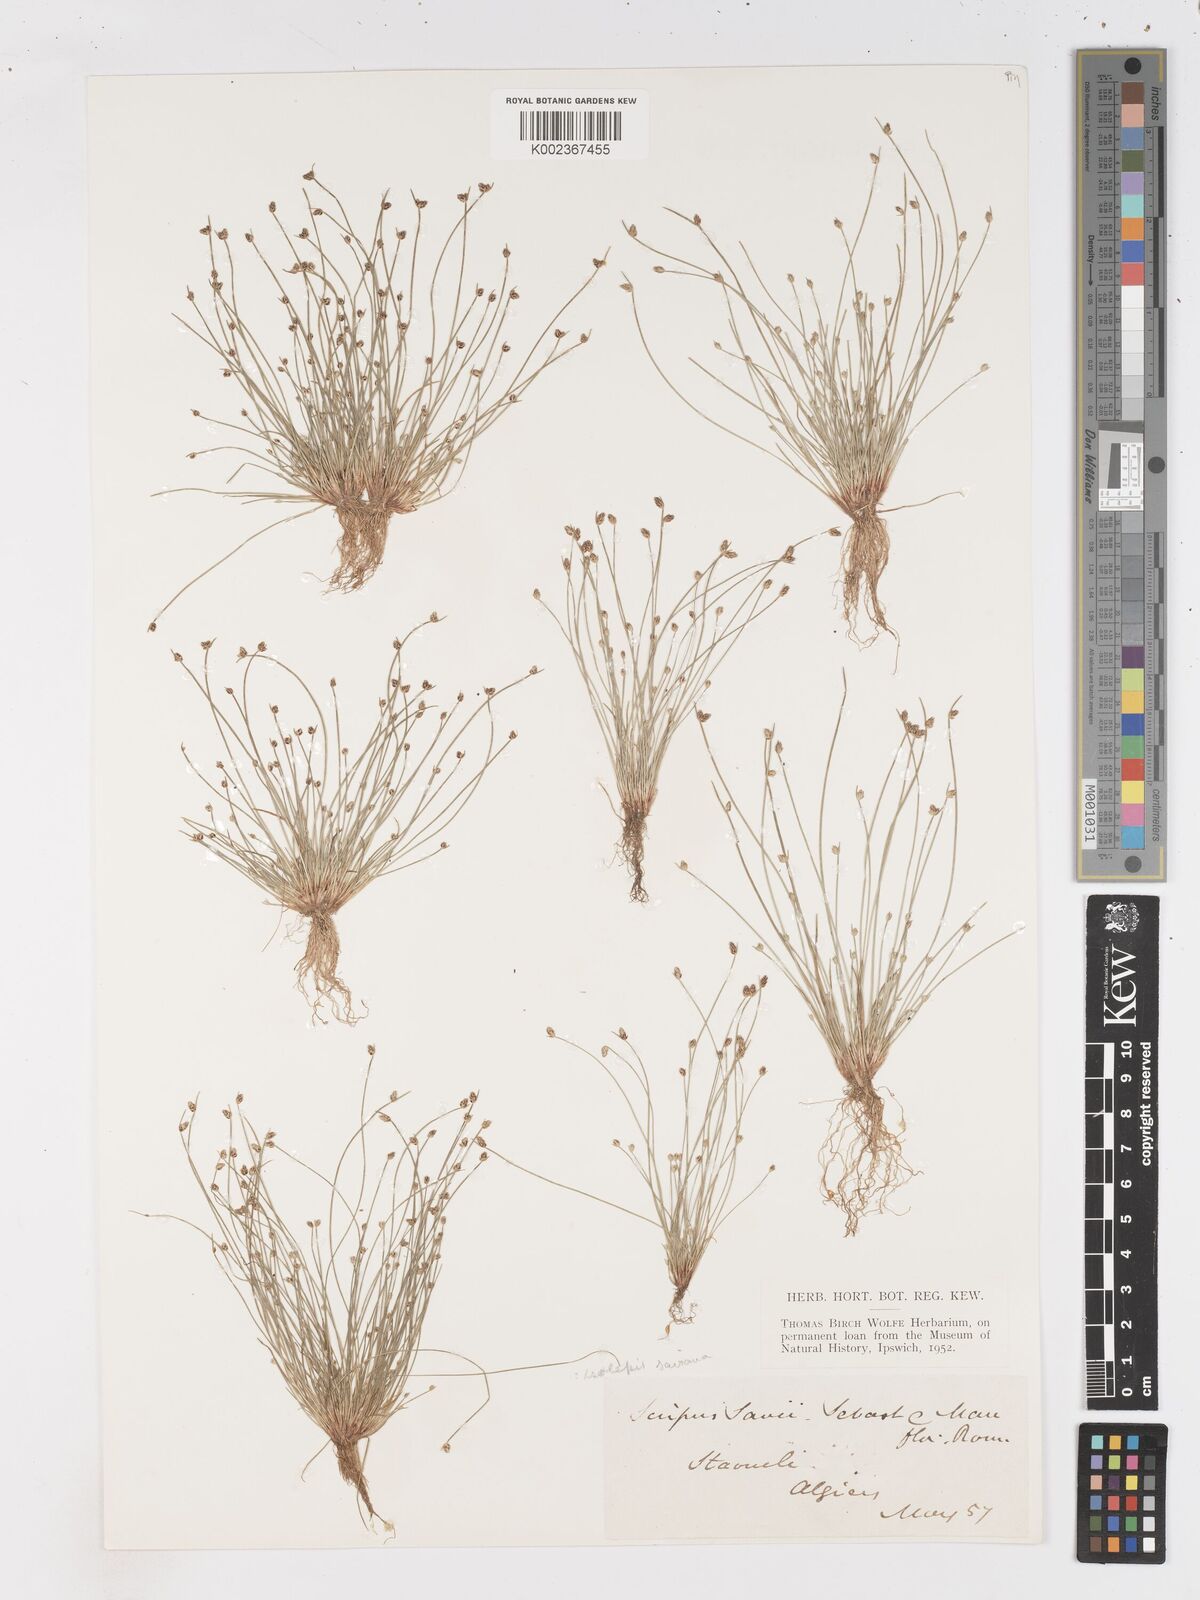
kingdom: Plantae
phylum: Tracheophyta
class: Liliopsida
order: Poales
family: Cyperaceae
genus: Isolepis
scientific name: Isolepis cernua
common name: Slender club-rush
